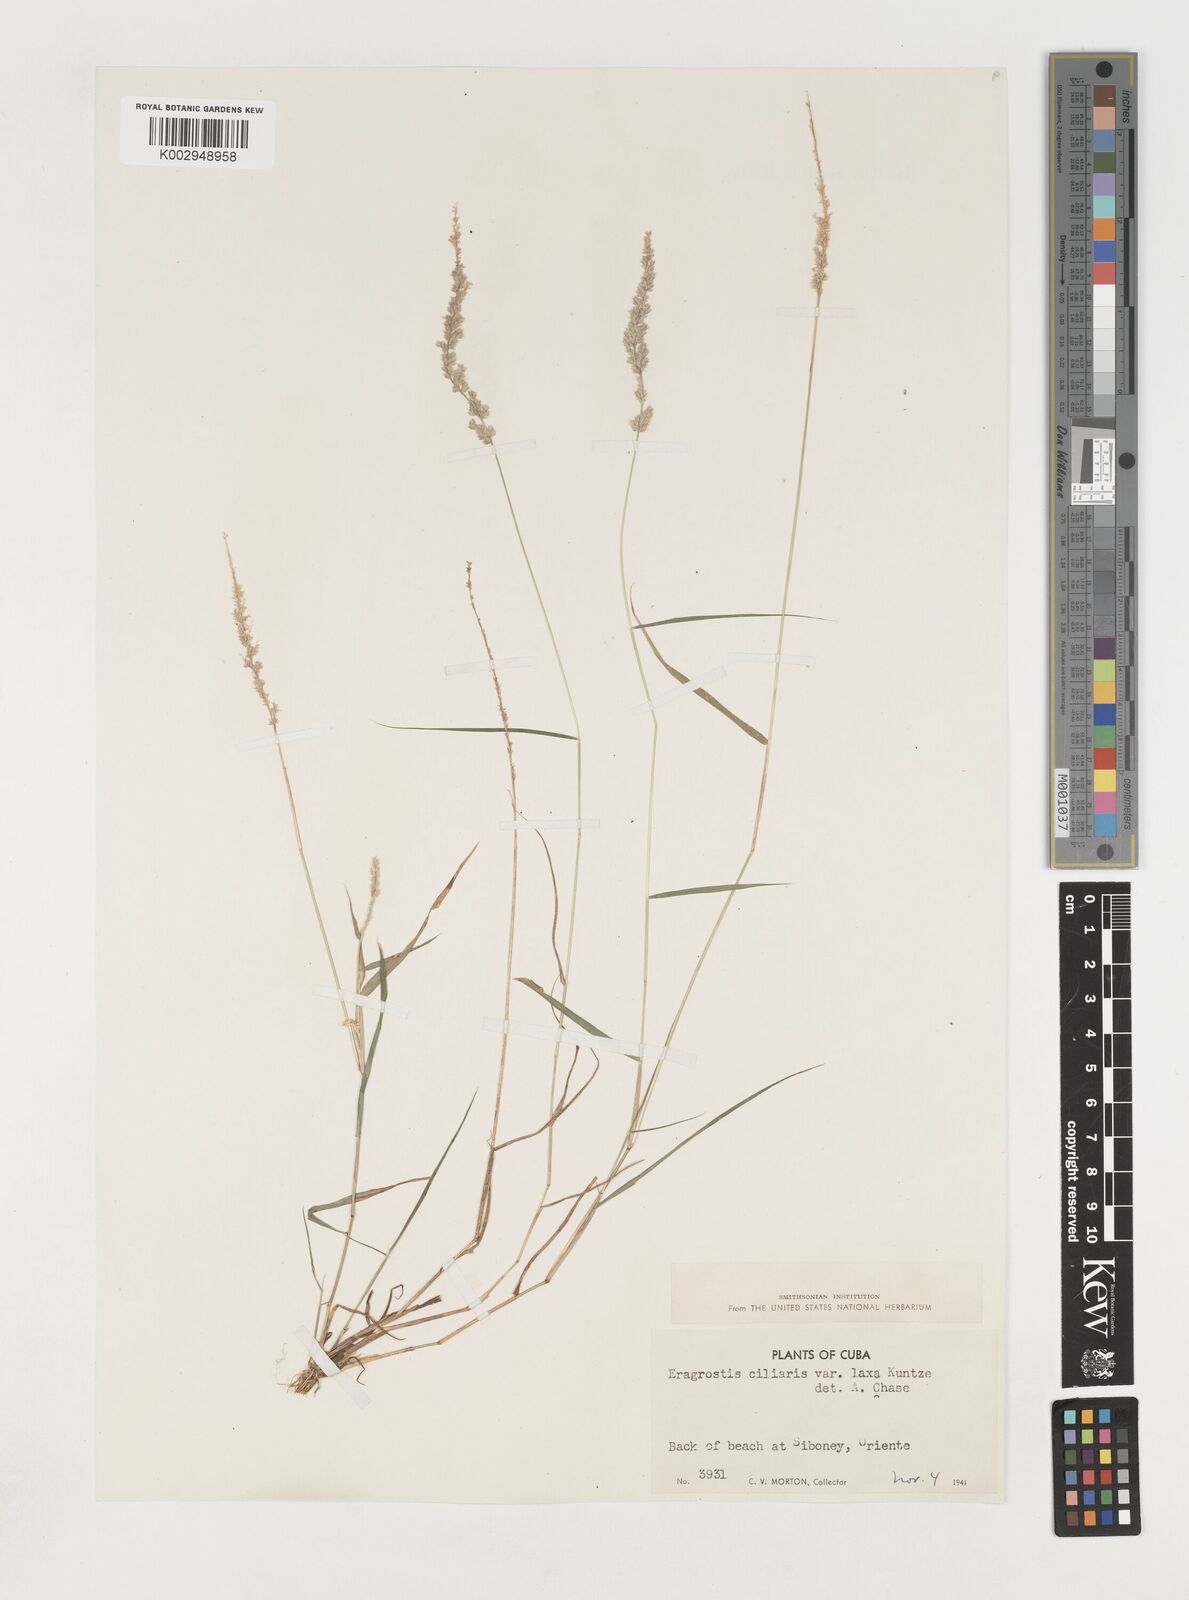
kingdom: Plantae
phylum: Tracheophyta
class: Liliopsida
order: Poales
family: Poaceae
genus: Eragrostis
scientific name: Eragrostis ciliaris
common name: Gophertail lovegrass
